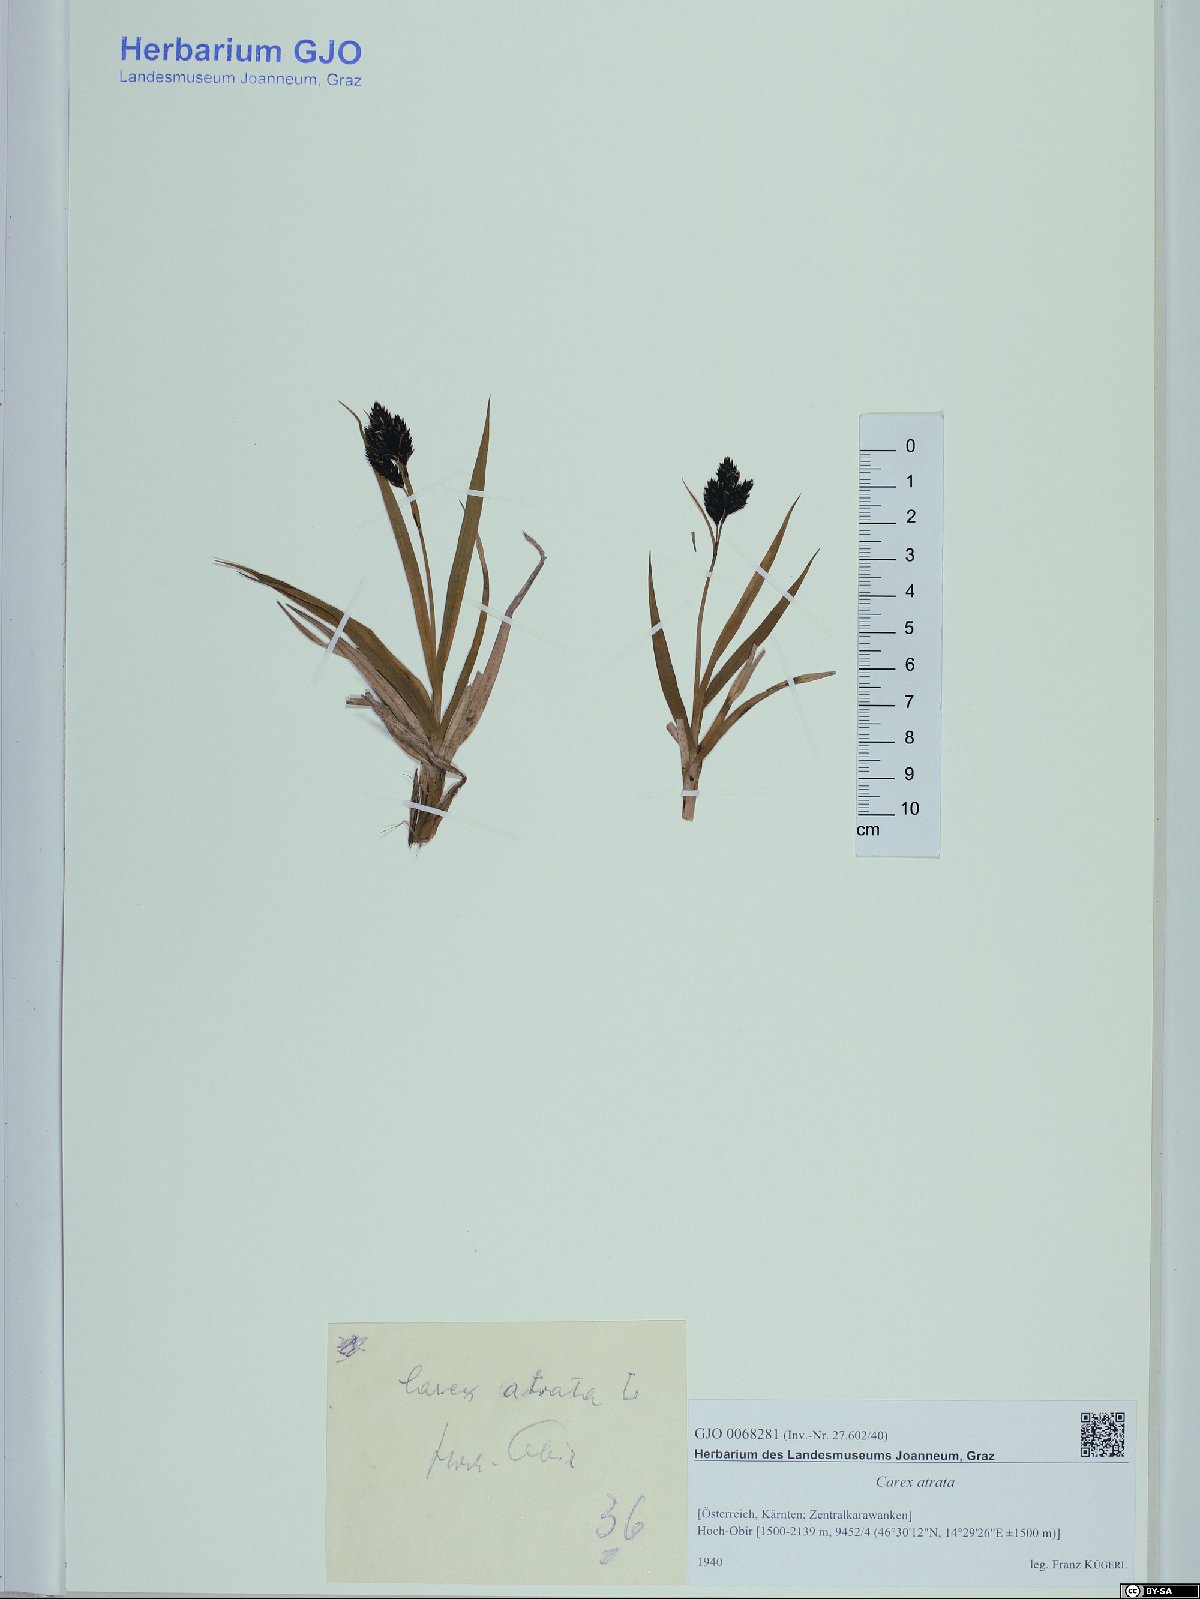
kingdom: Plantae
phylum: Tracheophyta
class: Liliopsida
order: Poales
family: Cyperaceae
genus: Carex
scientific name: Carex atrata
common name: Black alpine sedge
